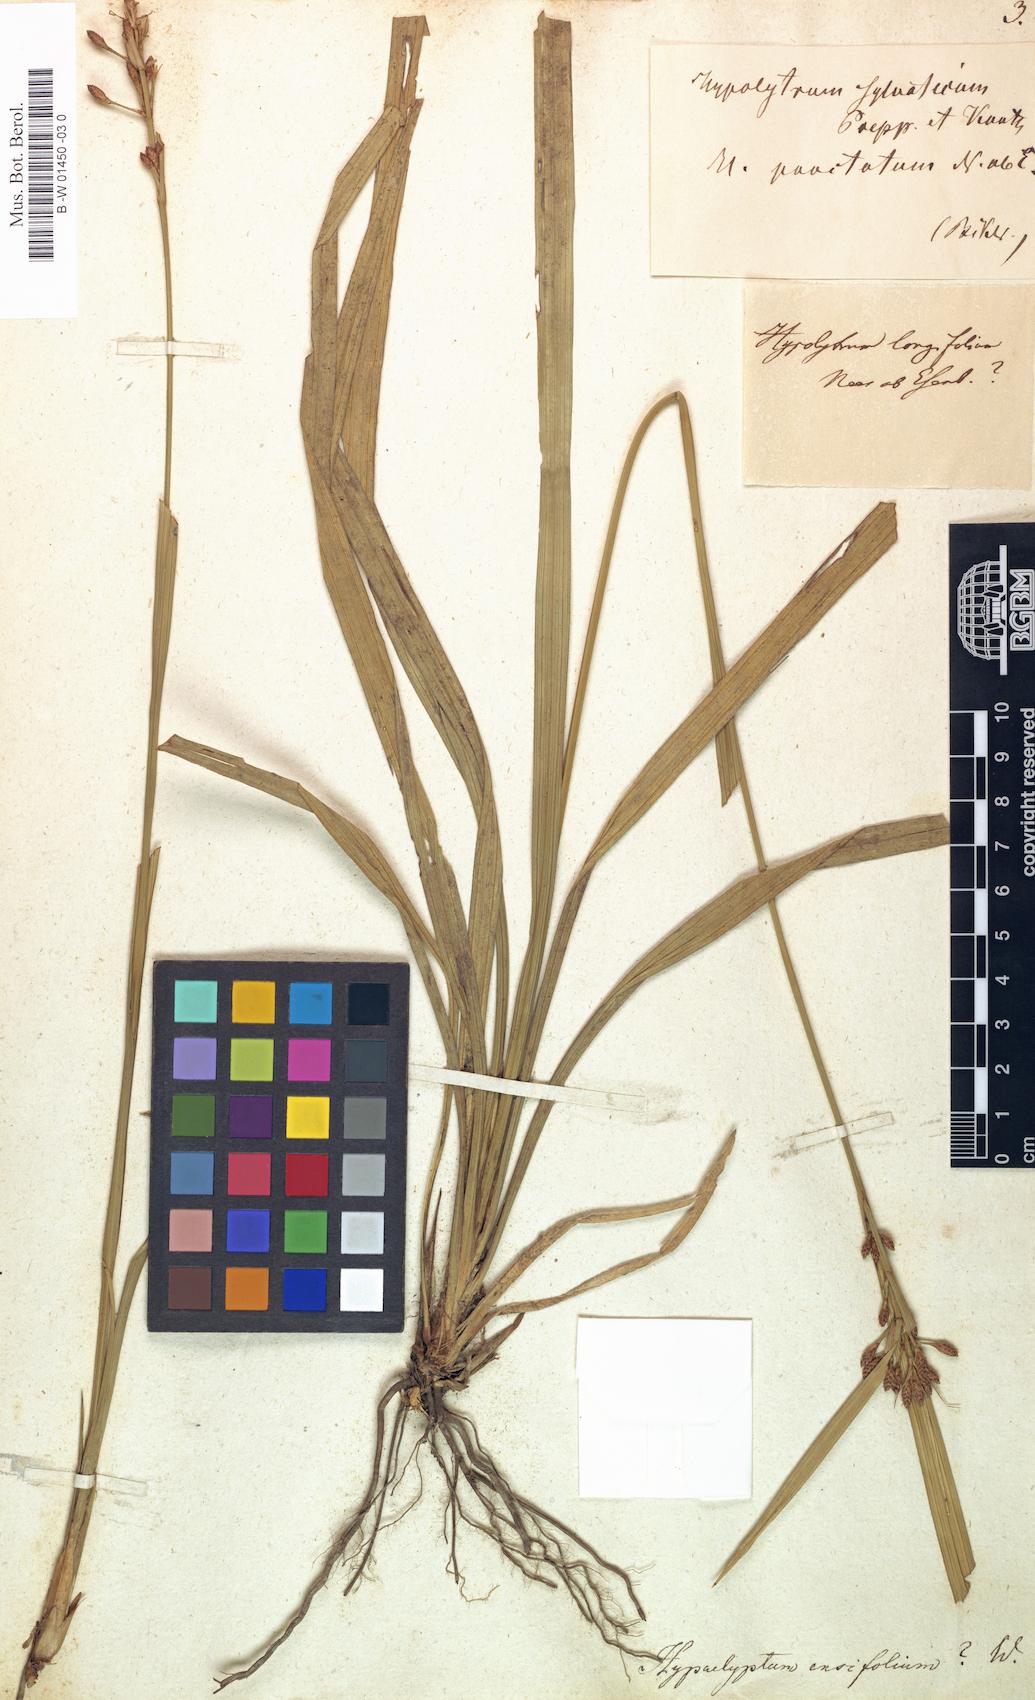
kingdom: Plantae
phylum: Tracheophyta
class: Liliopsida
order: Poales
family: Cyperaceae
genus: Cyperus
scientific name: Cyperus
